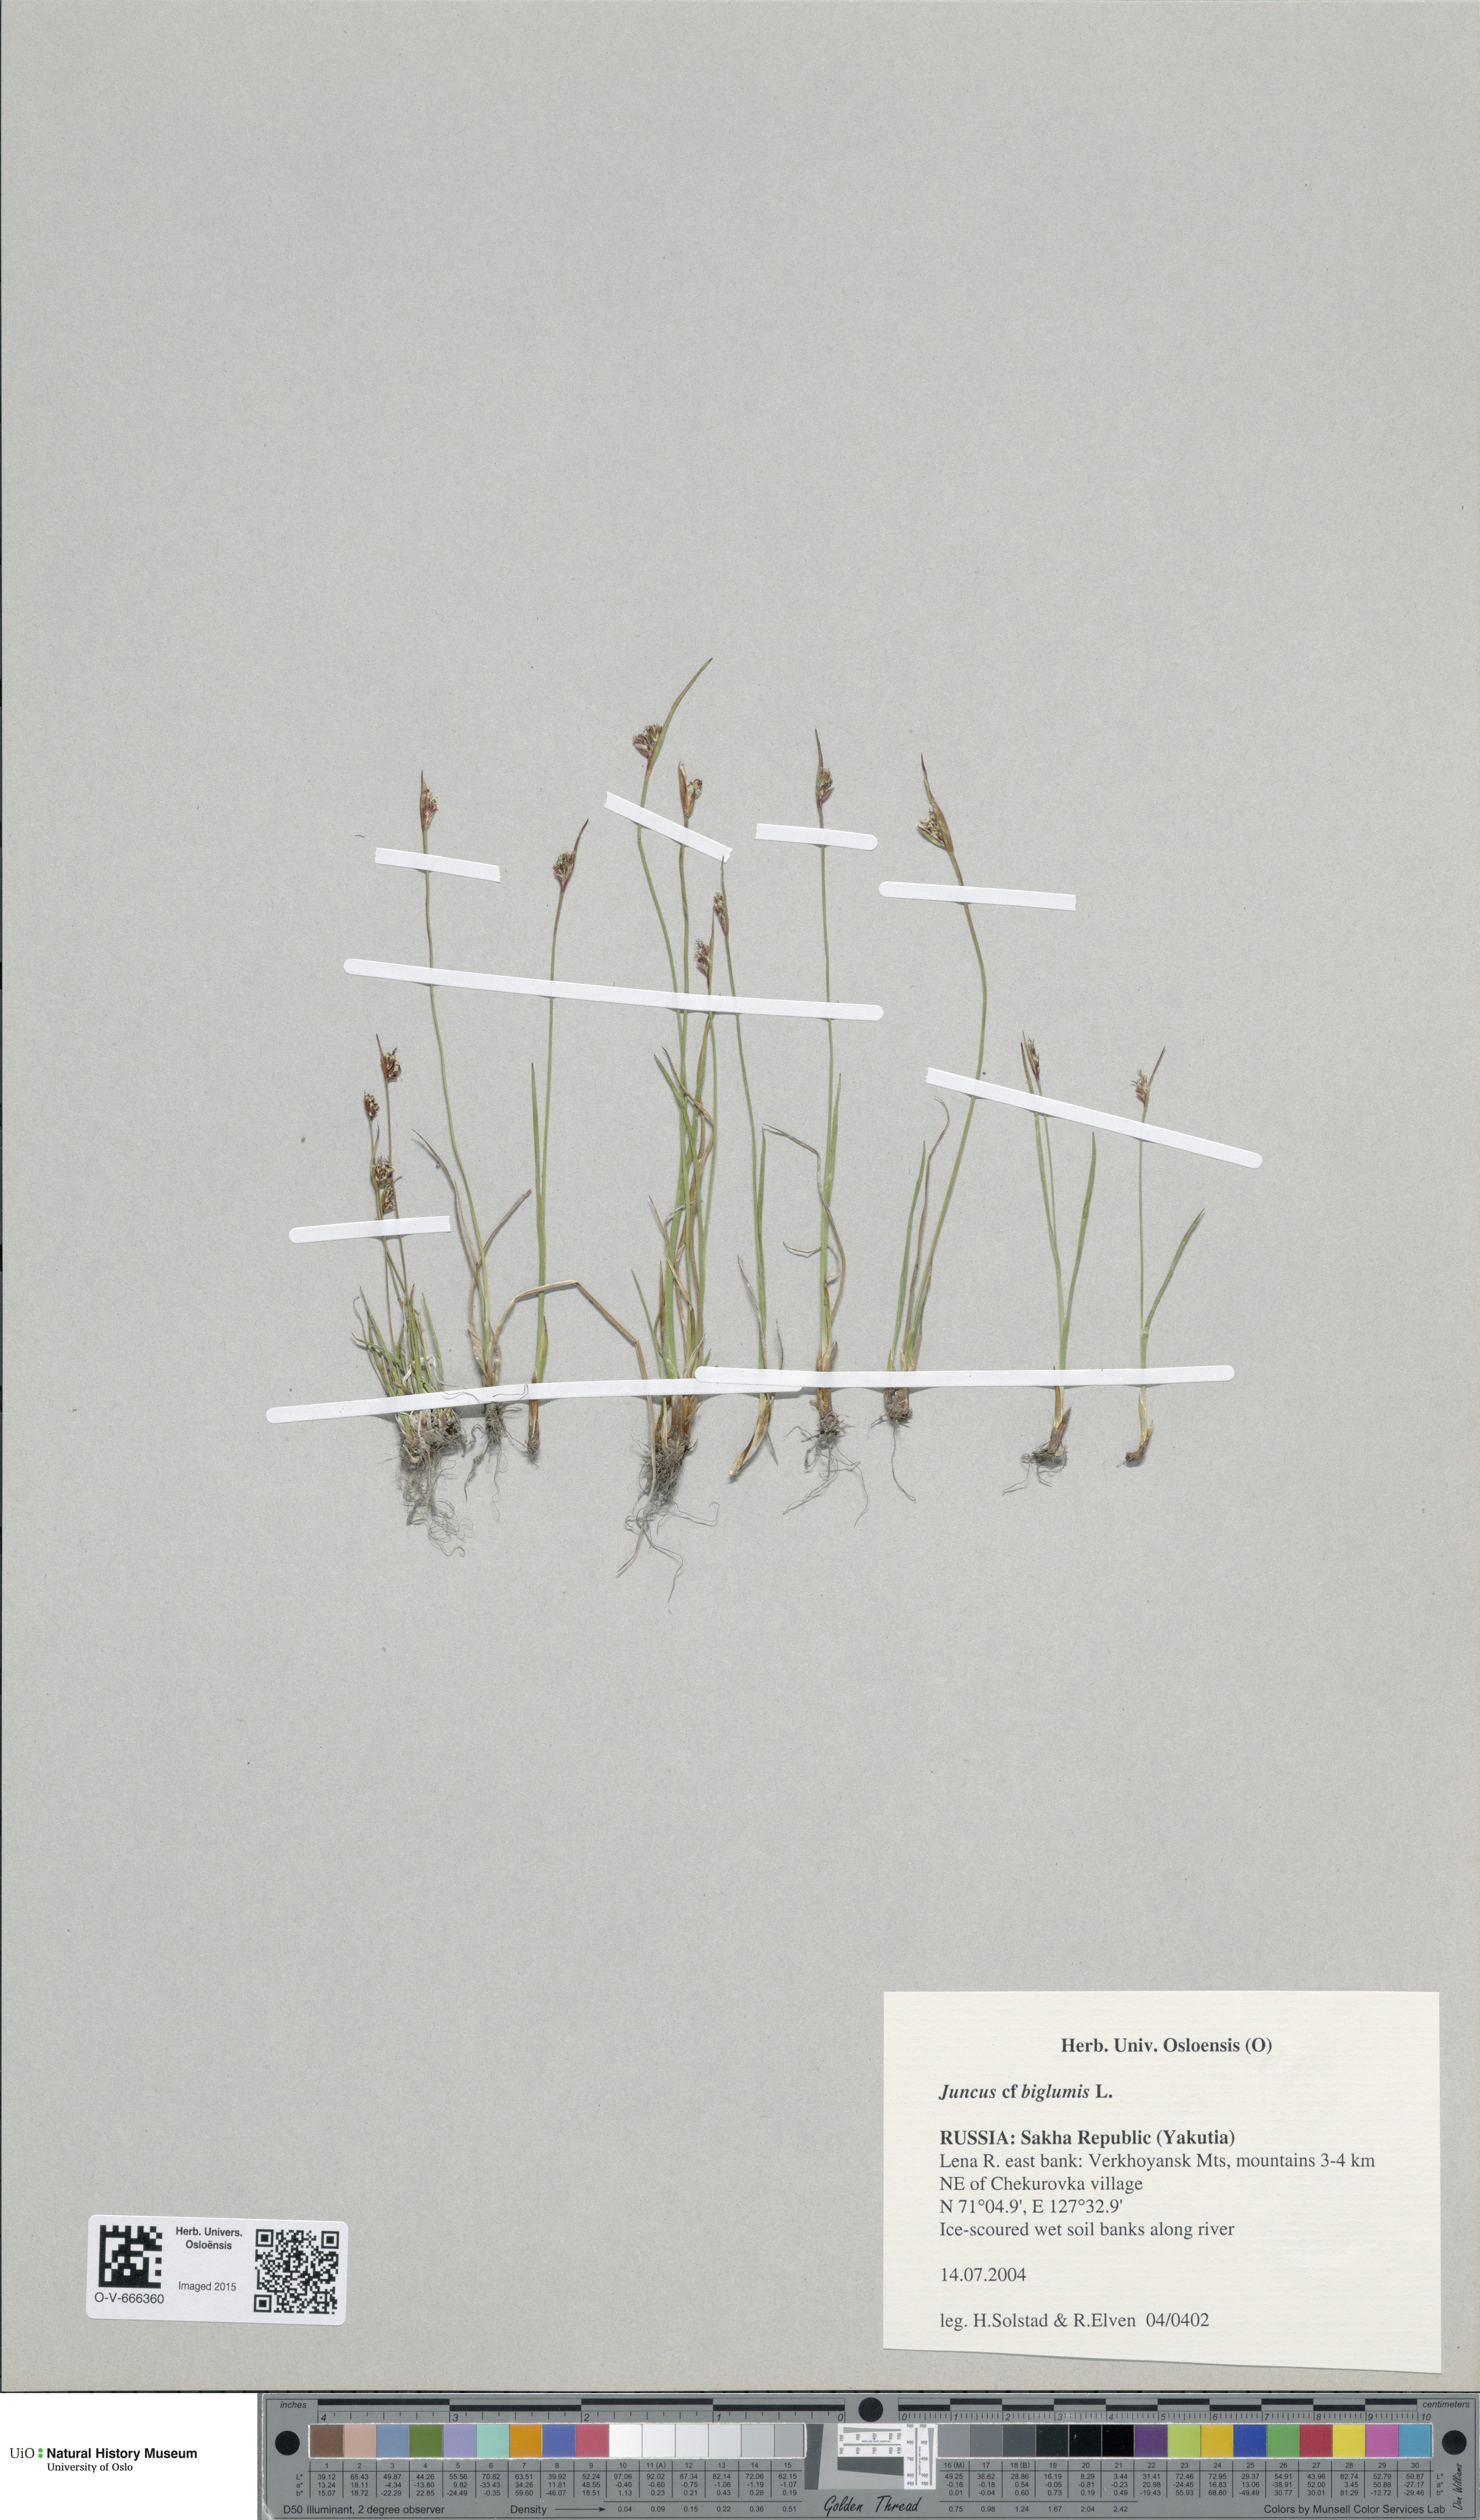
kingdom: Plantae
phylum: Tracheophyta
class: Liliopsida
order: Poales
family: Juncaceae
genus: Juncus
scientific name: Juncus biglumis
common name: Two-flowered rush
